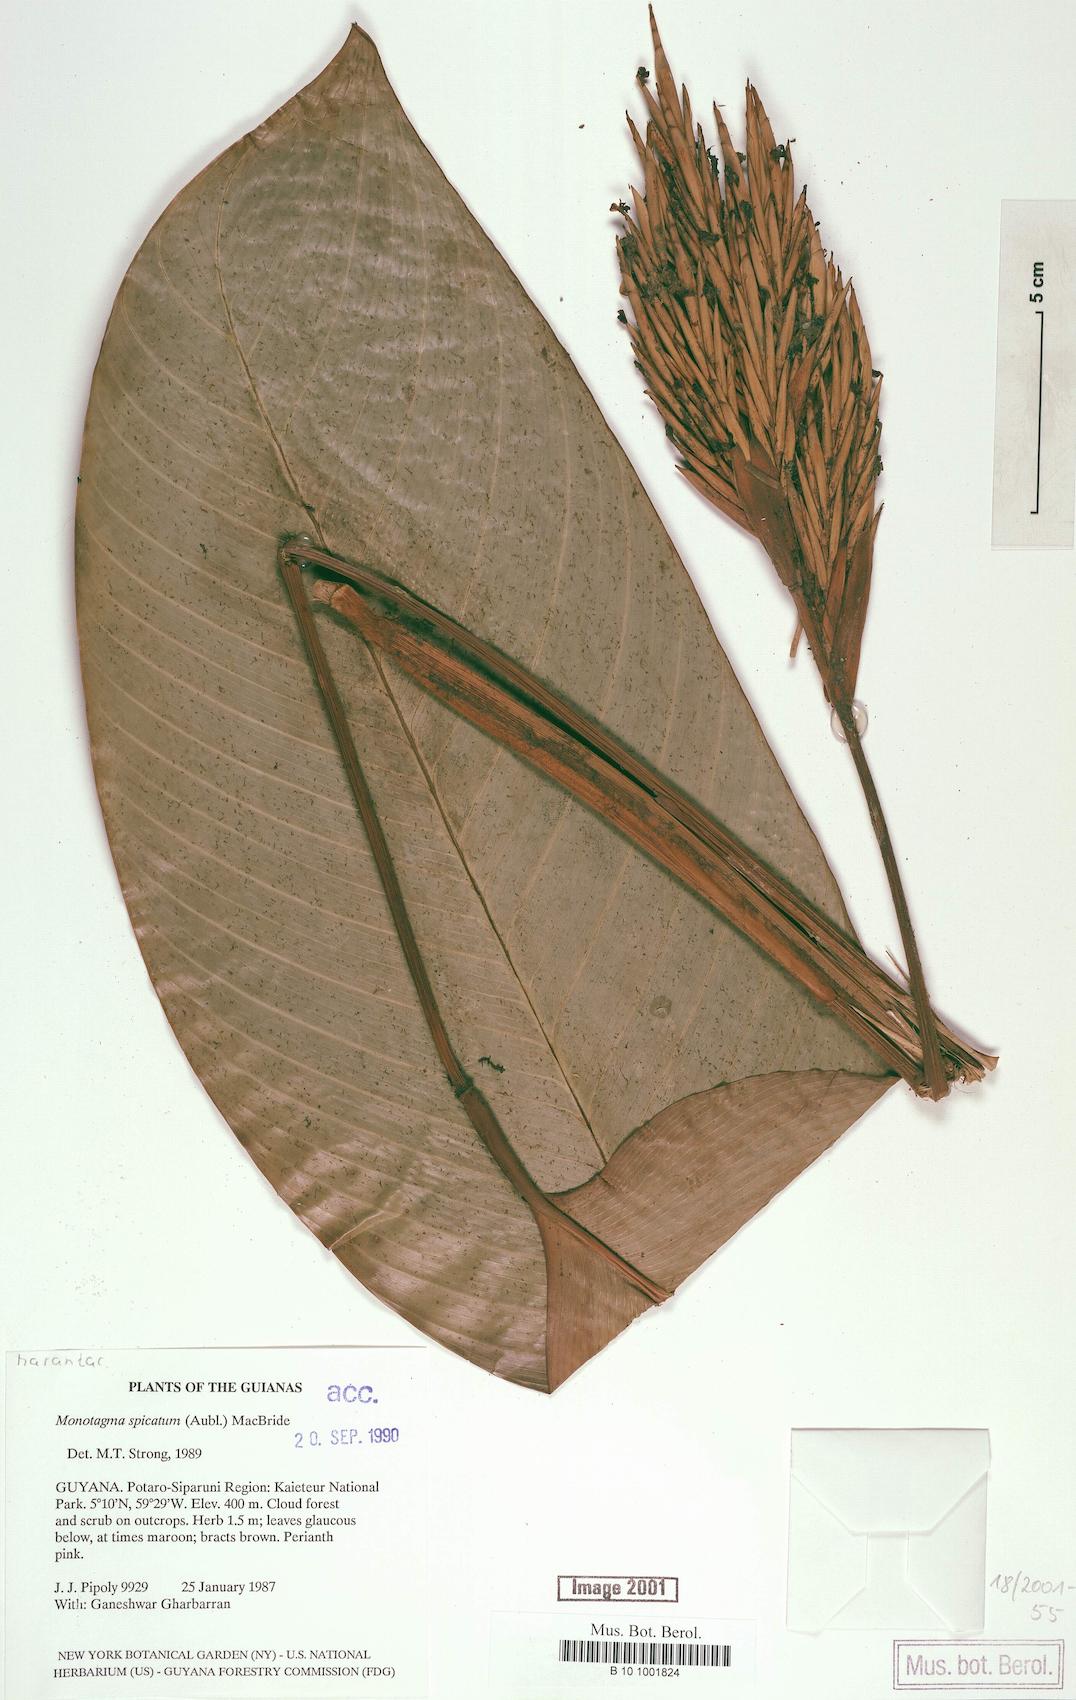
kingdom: Plantae
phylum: Tracheophyta
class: Liliopsida
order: Zingiberales
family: Marantaceae
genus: Monotagma
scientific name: Monotagma spicatum
